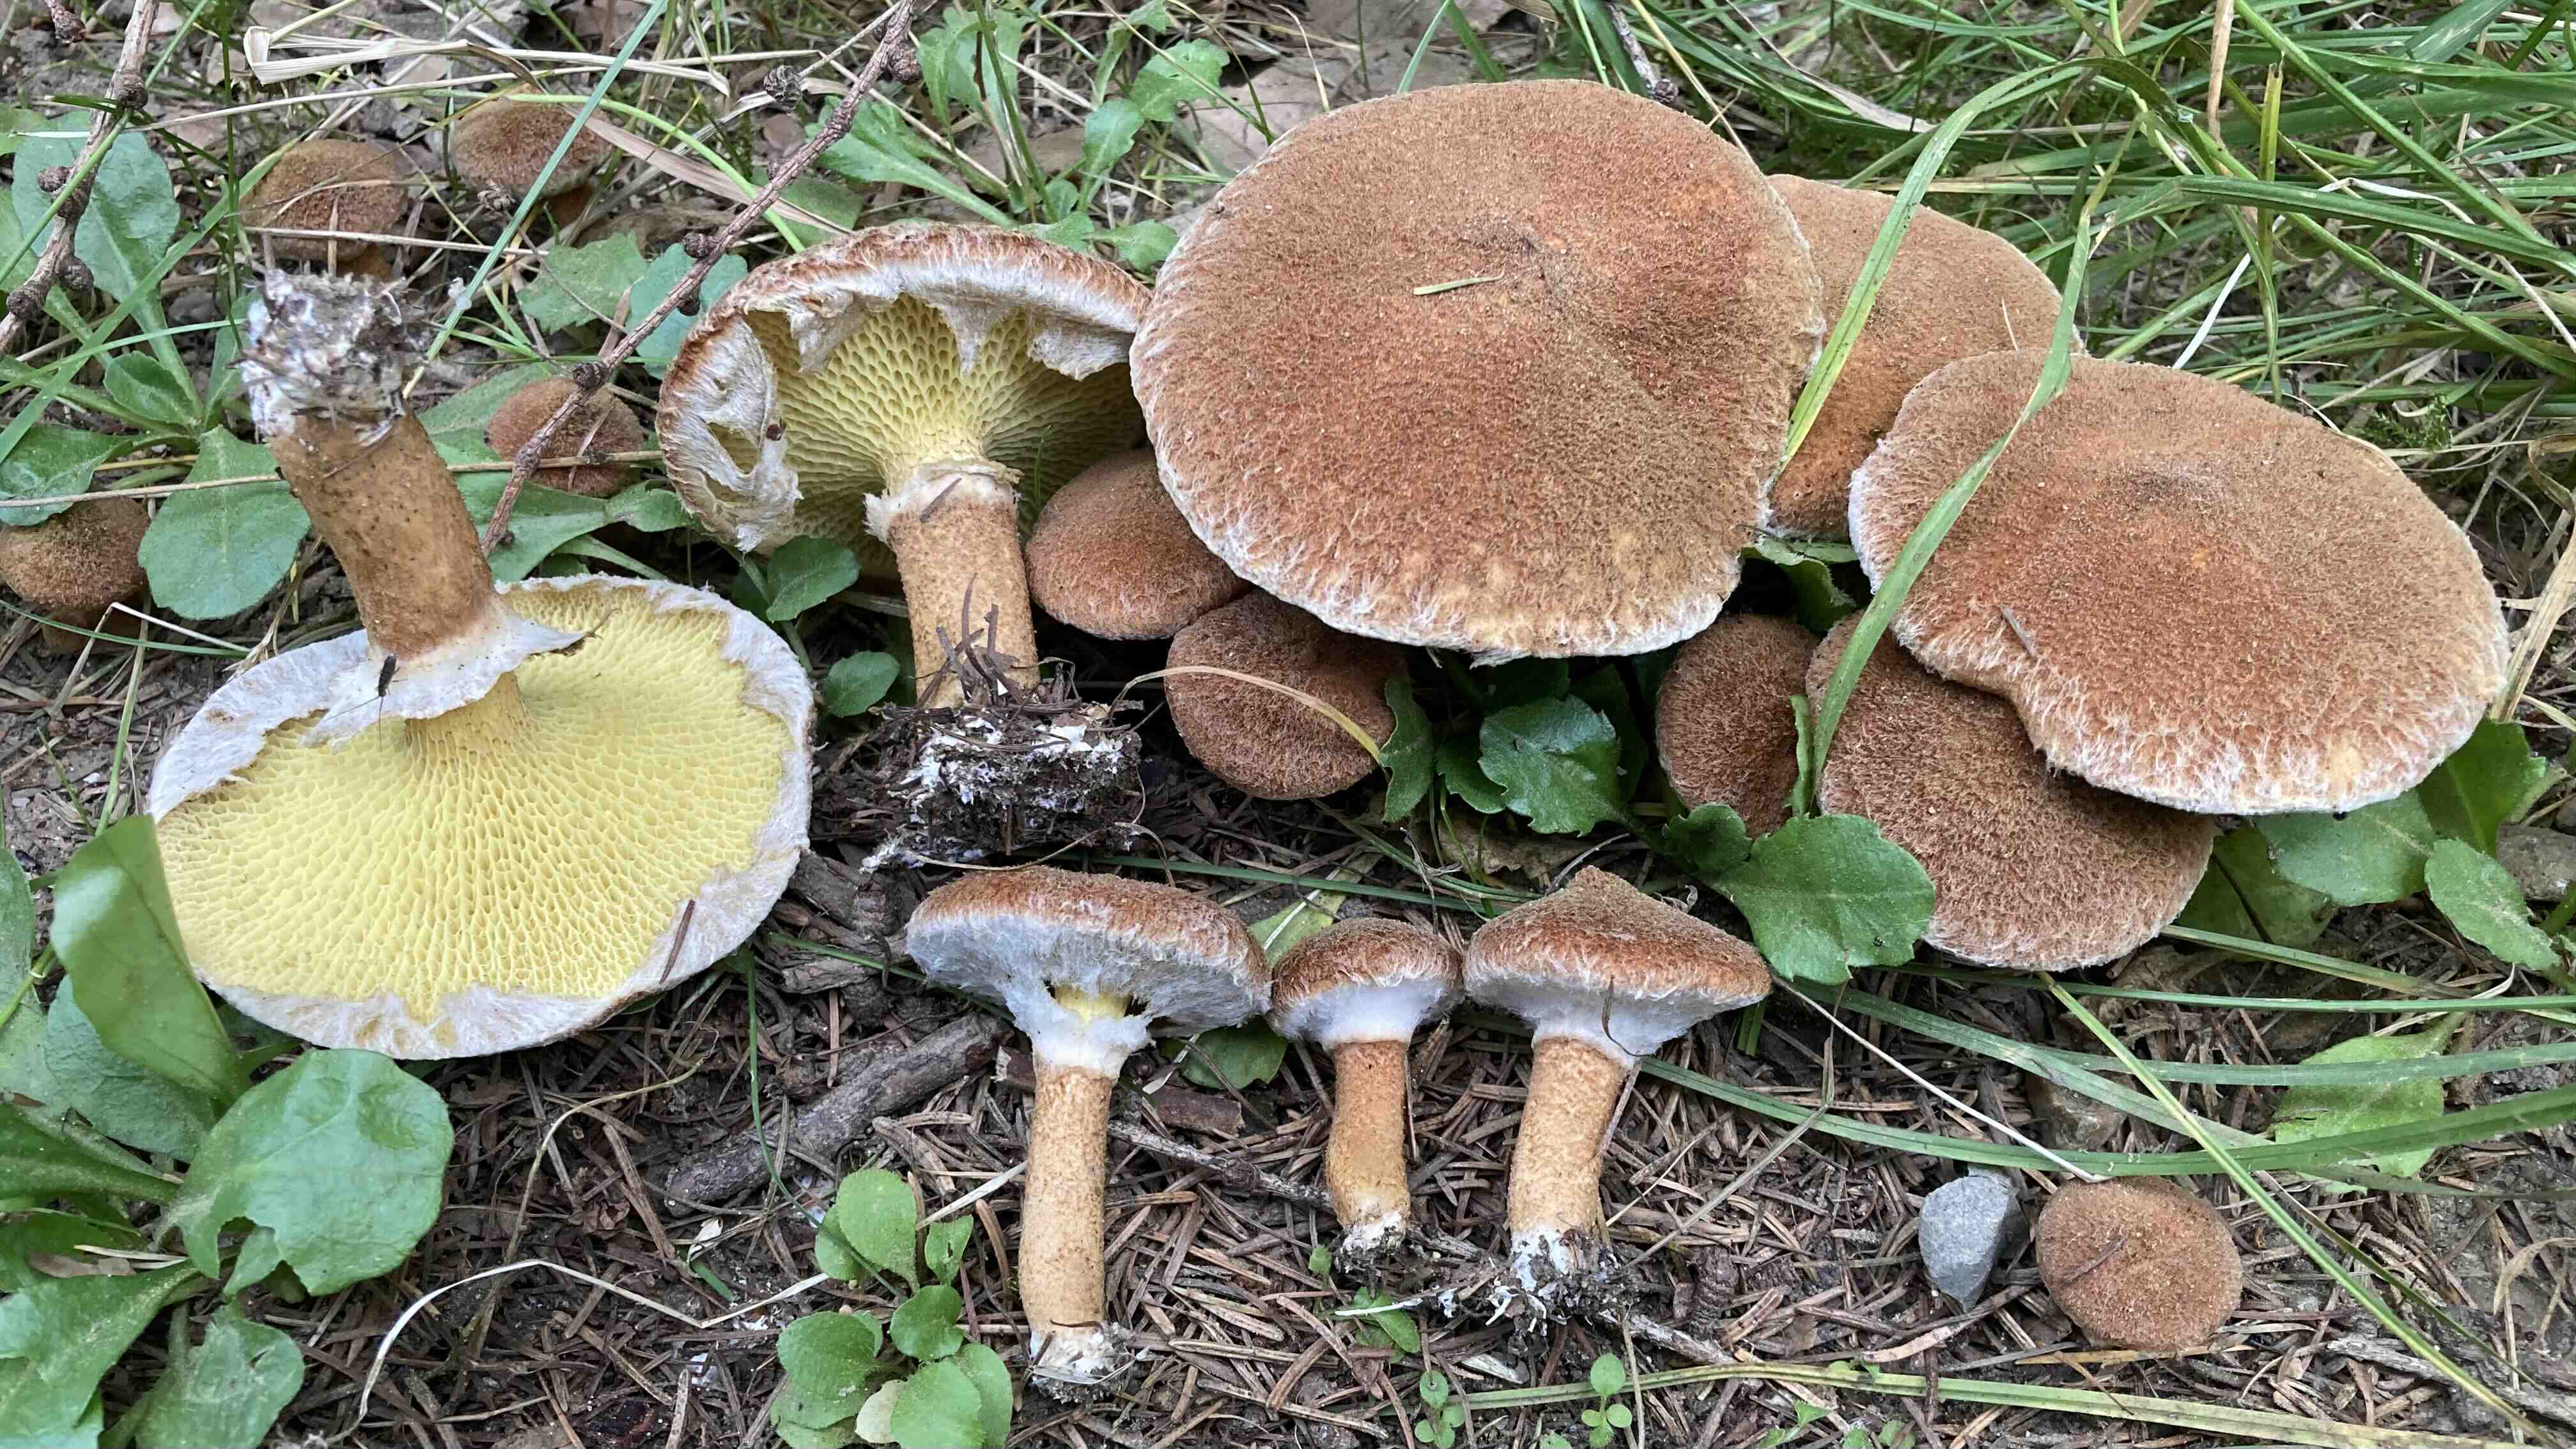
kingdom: Fungi
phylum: Basidiomycota
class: Agaricomycetes
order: Boletales
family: Suillaceae
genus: Suillus
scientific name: Suillus cavipes
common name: hulstokket slimrørhat
